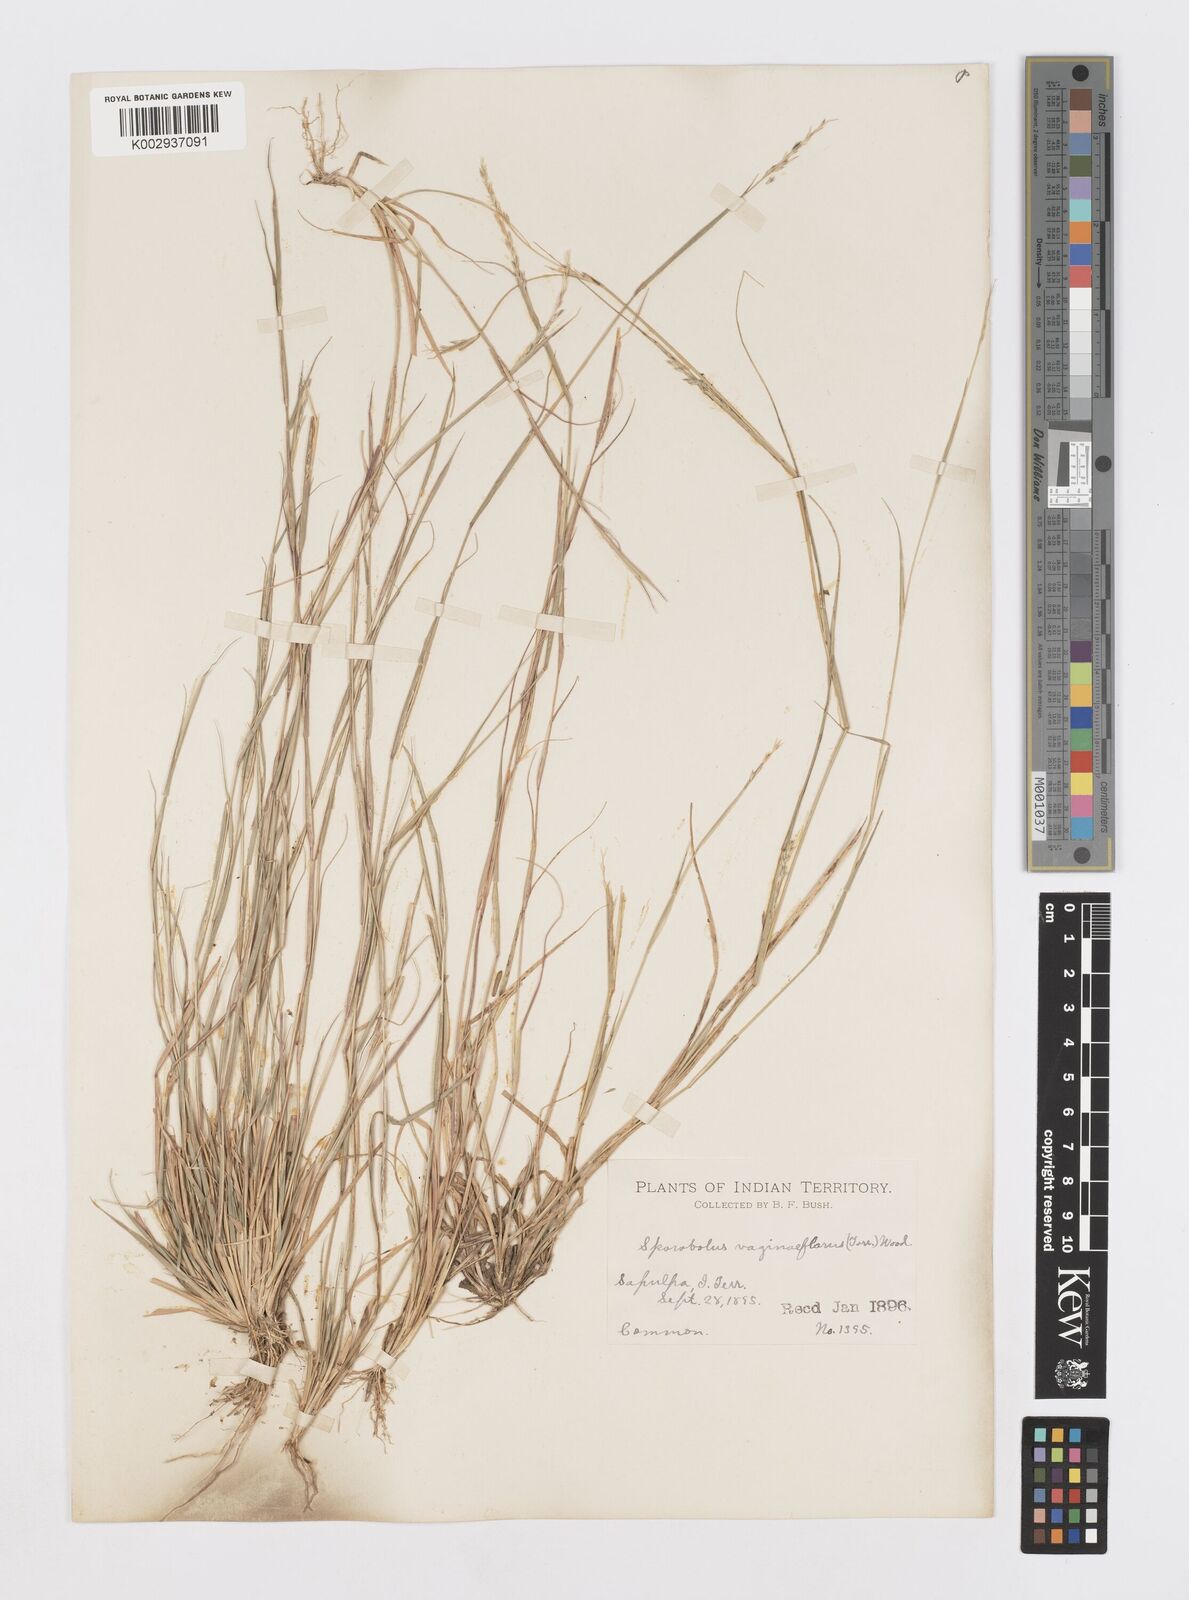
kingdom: Plantae
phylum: Tracheophyta
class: Liliopsida
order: Poales
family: Poaceae
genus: Sporobolus
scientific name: Sporobolus vaginiflorus
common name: Poverty dropseed
